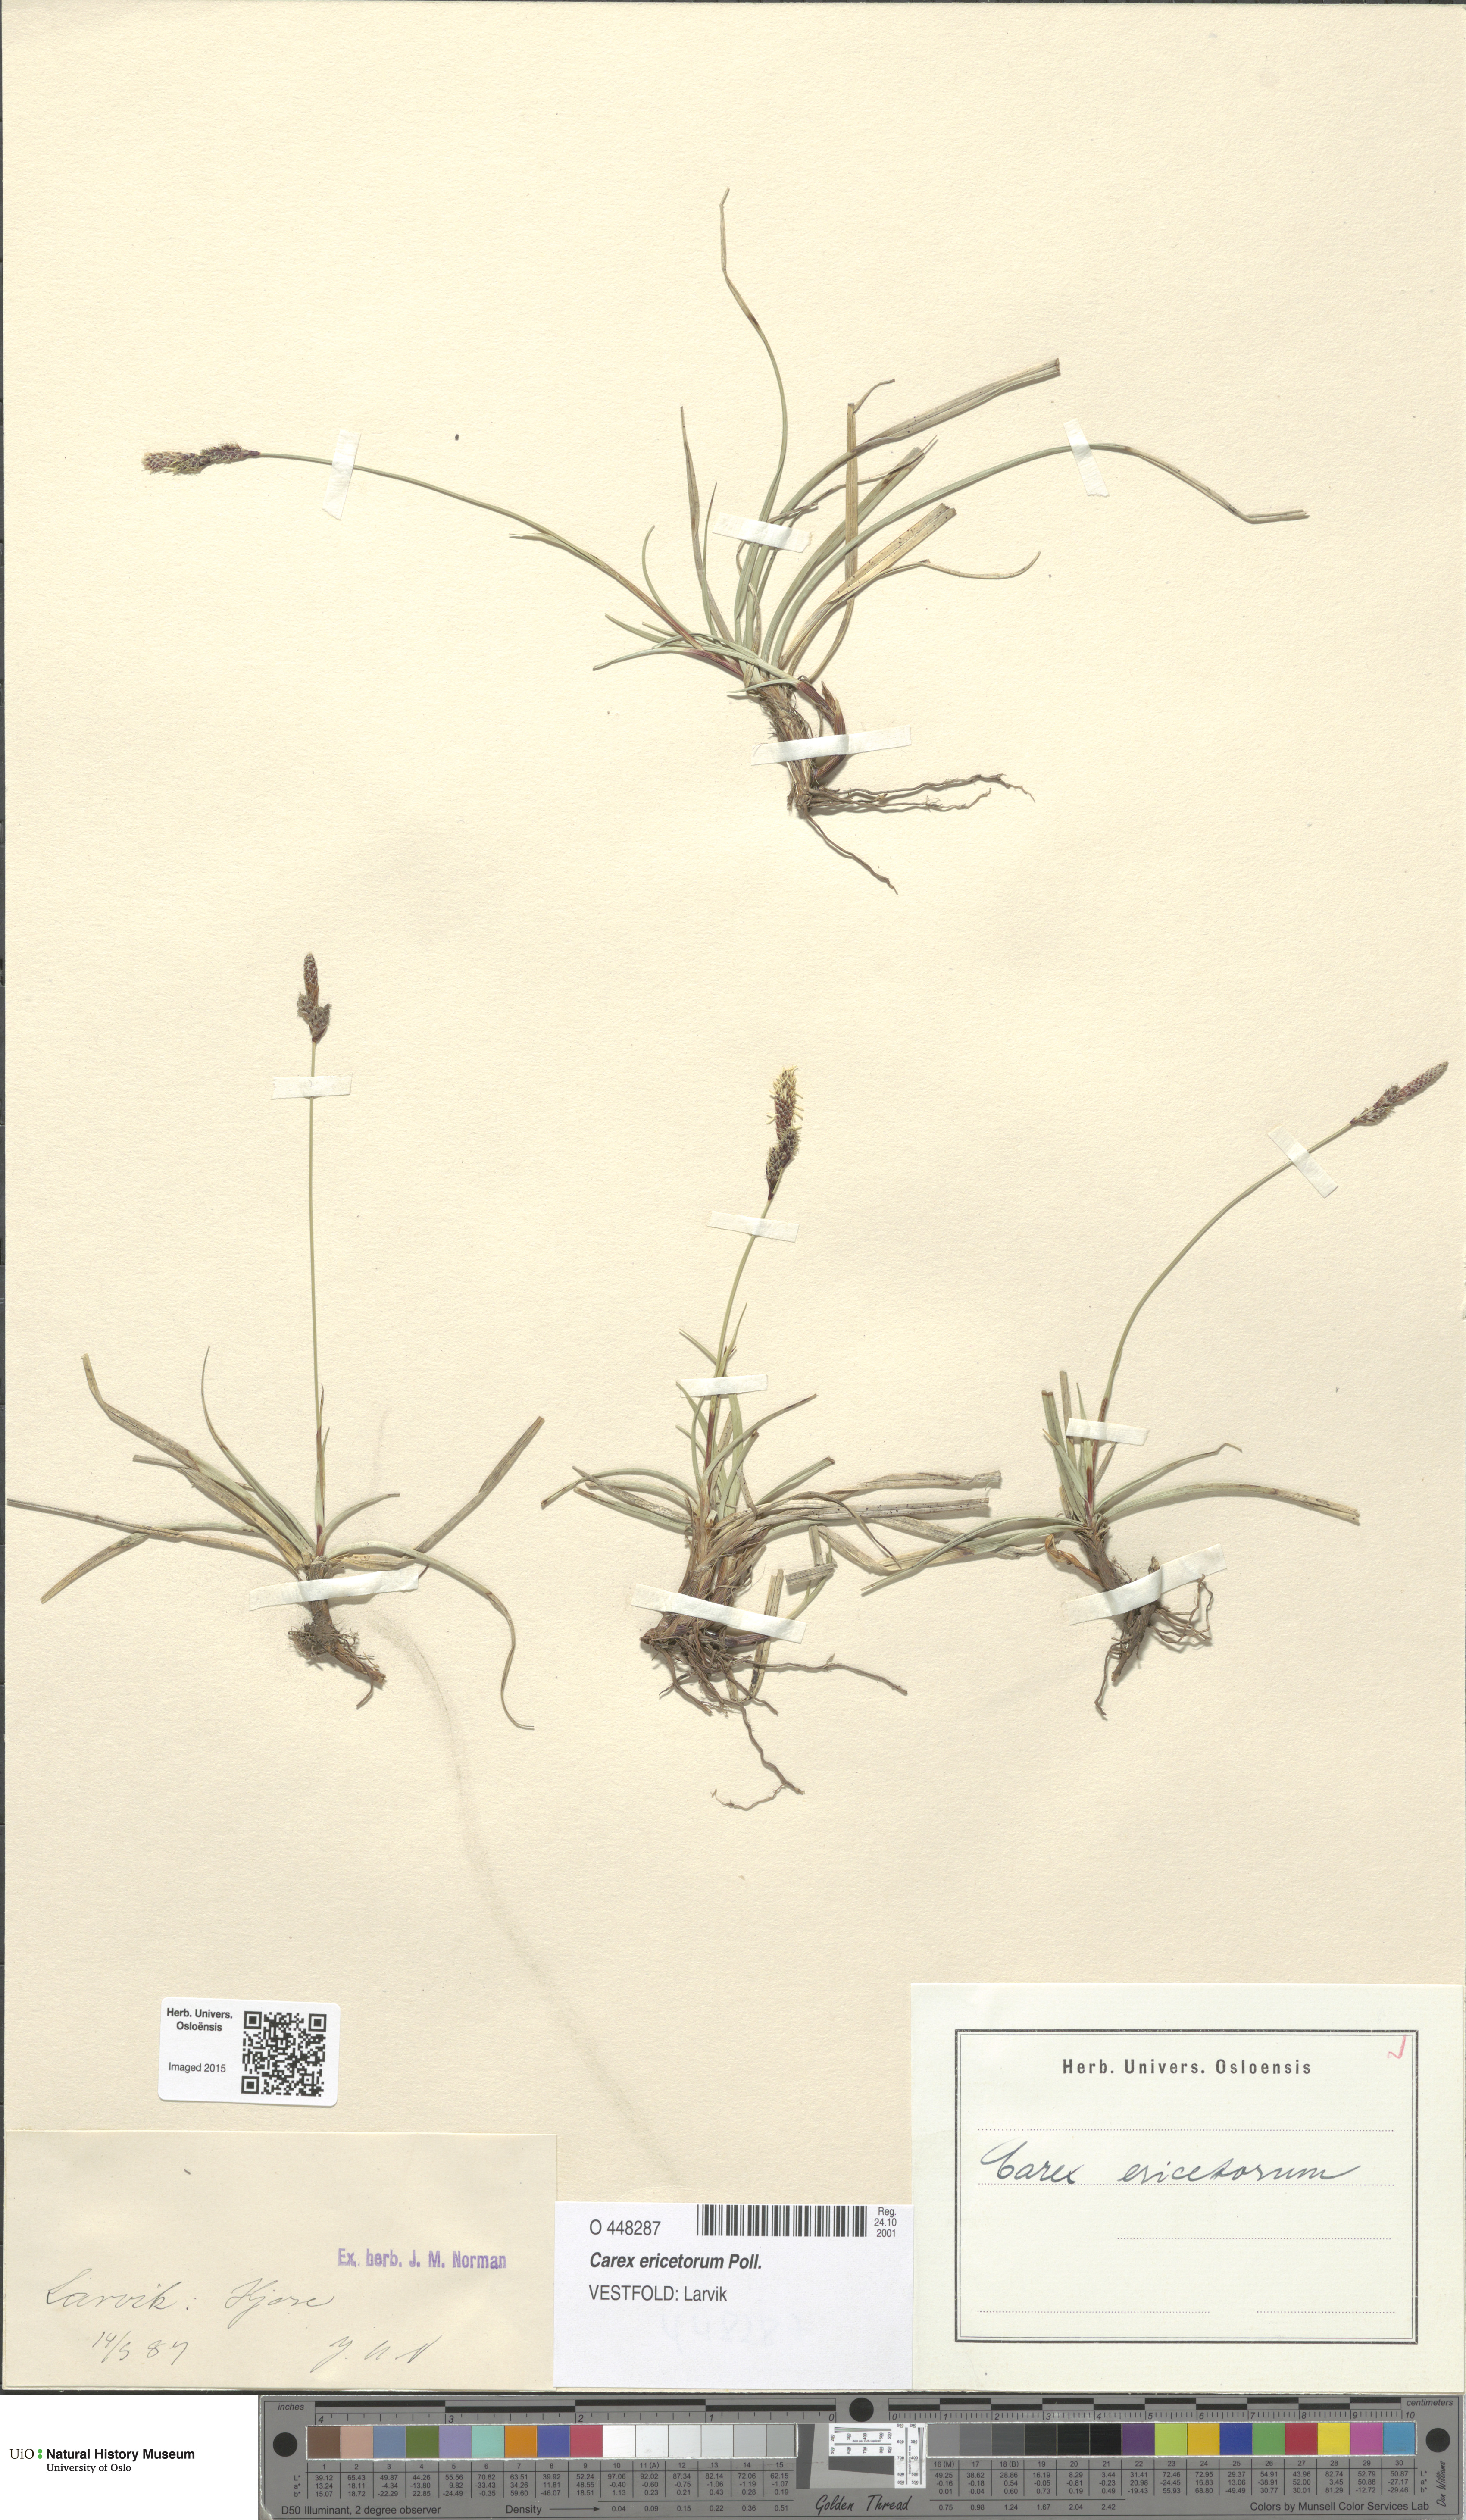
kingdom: Plantae
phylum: Tracheophyta
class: Liliopsida
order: Poales
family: Cyperaceae
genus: Carex
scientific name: Carex ericetorum
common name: Rare spring-sedge
